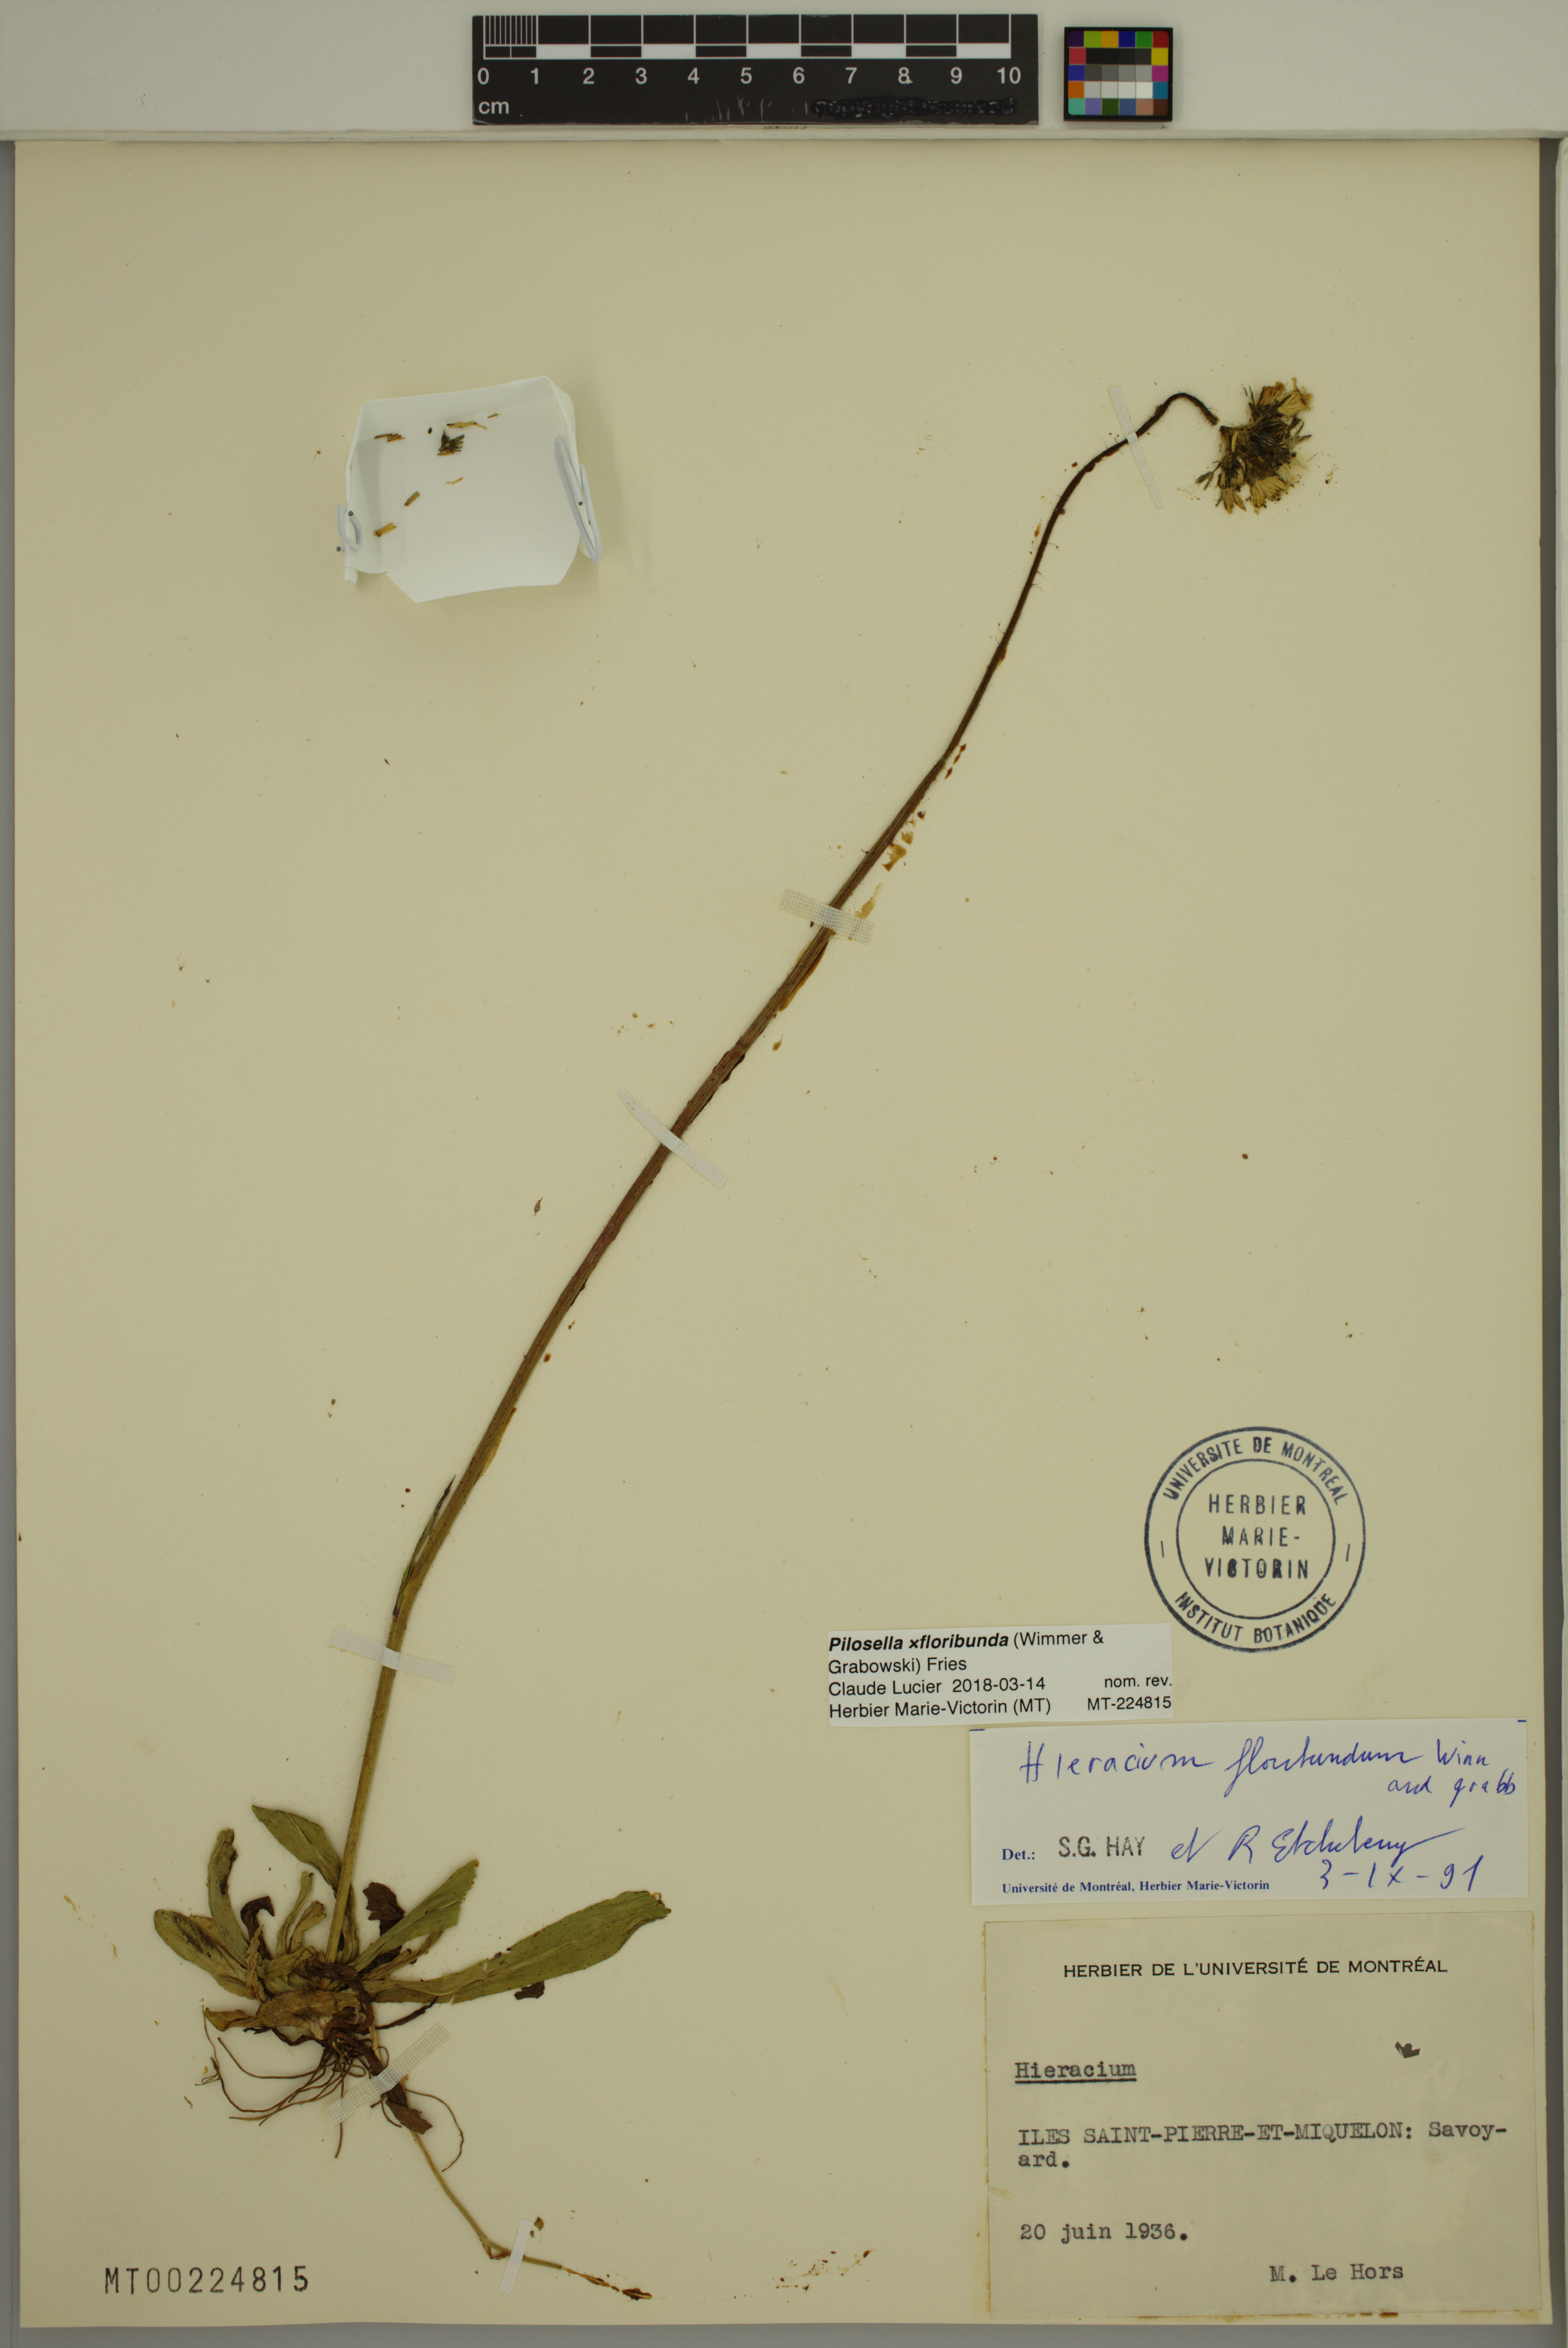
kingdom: Plantae
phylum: Tracheophyta
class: Magnoliopsida
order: Asterales
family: Asteraceae
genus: Pilosella
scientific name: Pilosella floribunda
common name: Glaucous hawkweed
